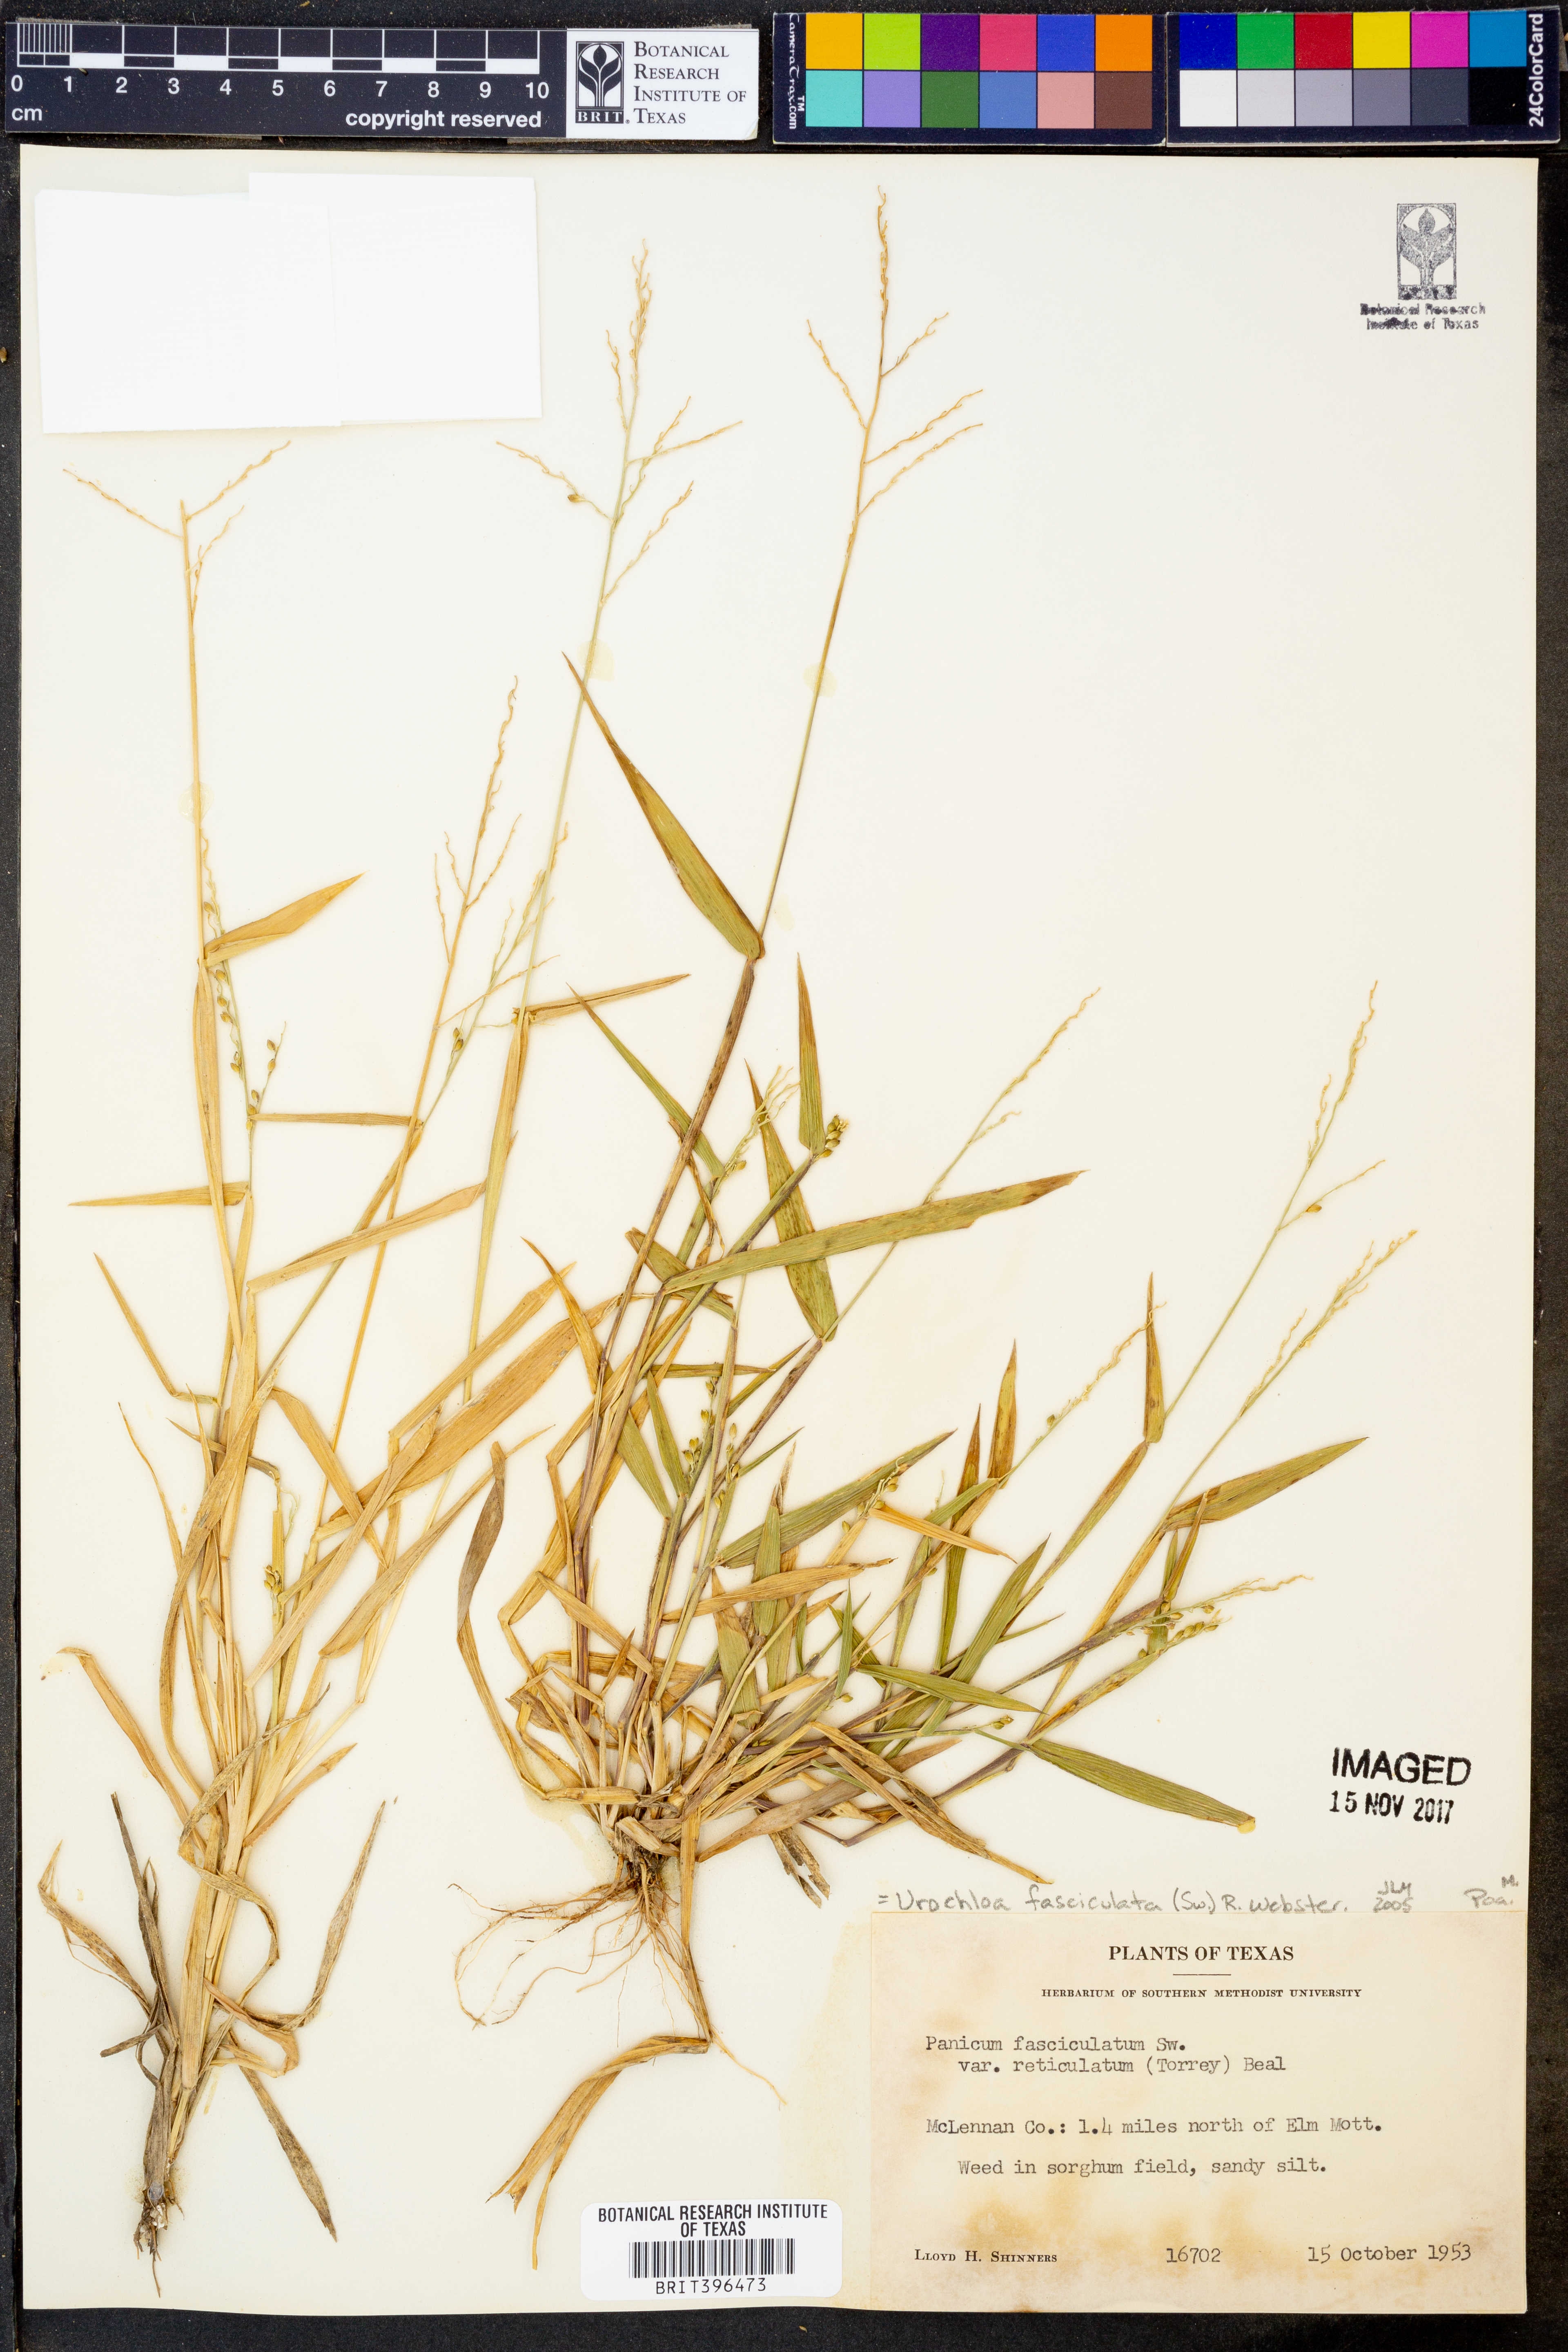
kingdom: Plantae
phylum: Tracheophyta
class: Liliopsida
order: Poales
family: Poaceae
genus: Urochloa
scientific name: Urochloa fusca
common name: Browntop signal grass
